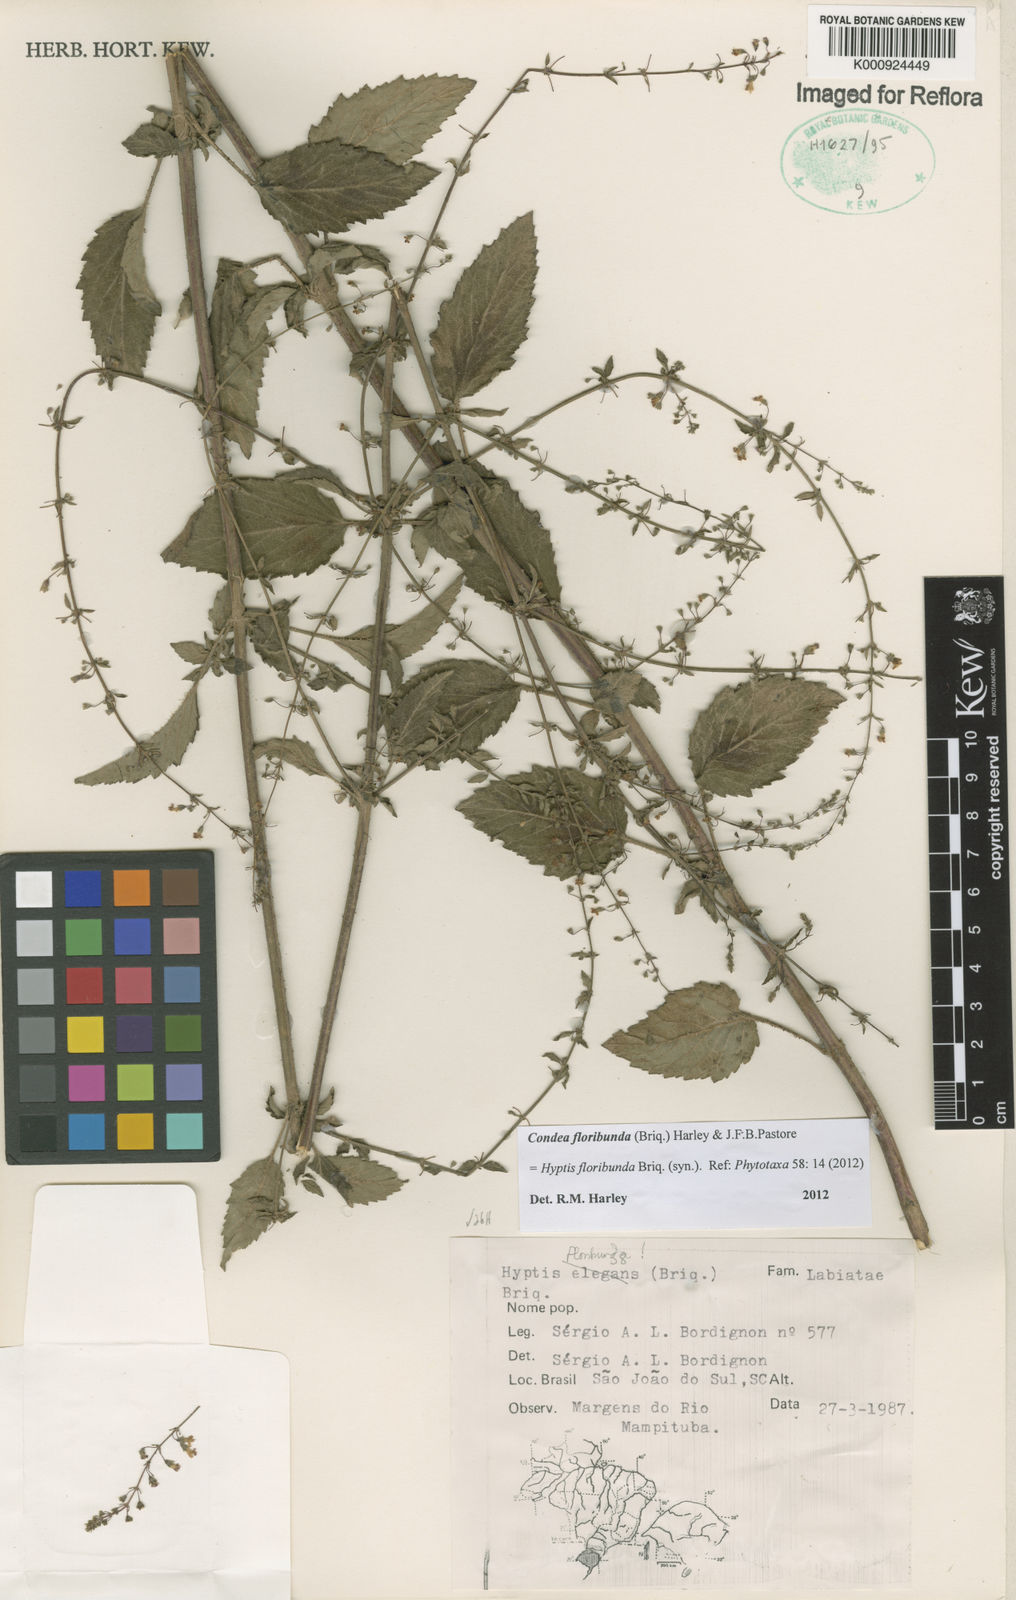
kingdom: Plantae
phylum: Tracheophyta
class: Magnoliopsida
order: Lamiales
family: Lamiaceae
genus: Condea
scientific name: Condea floribunda
